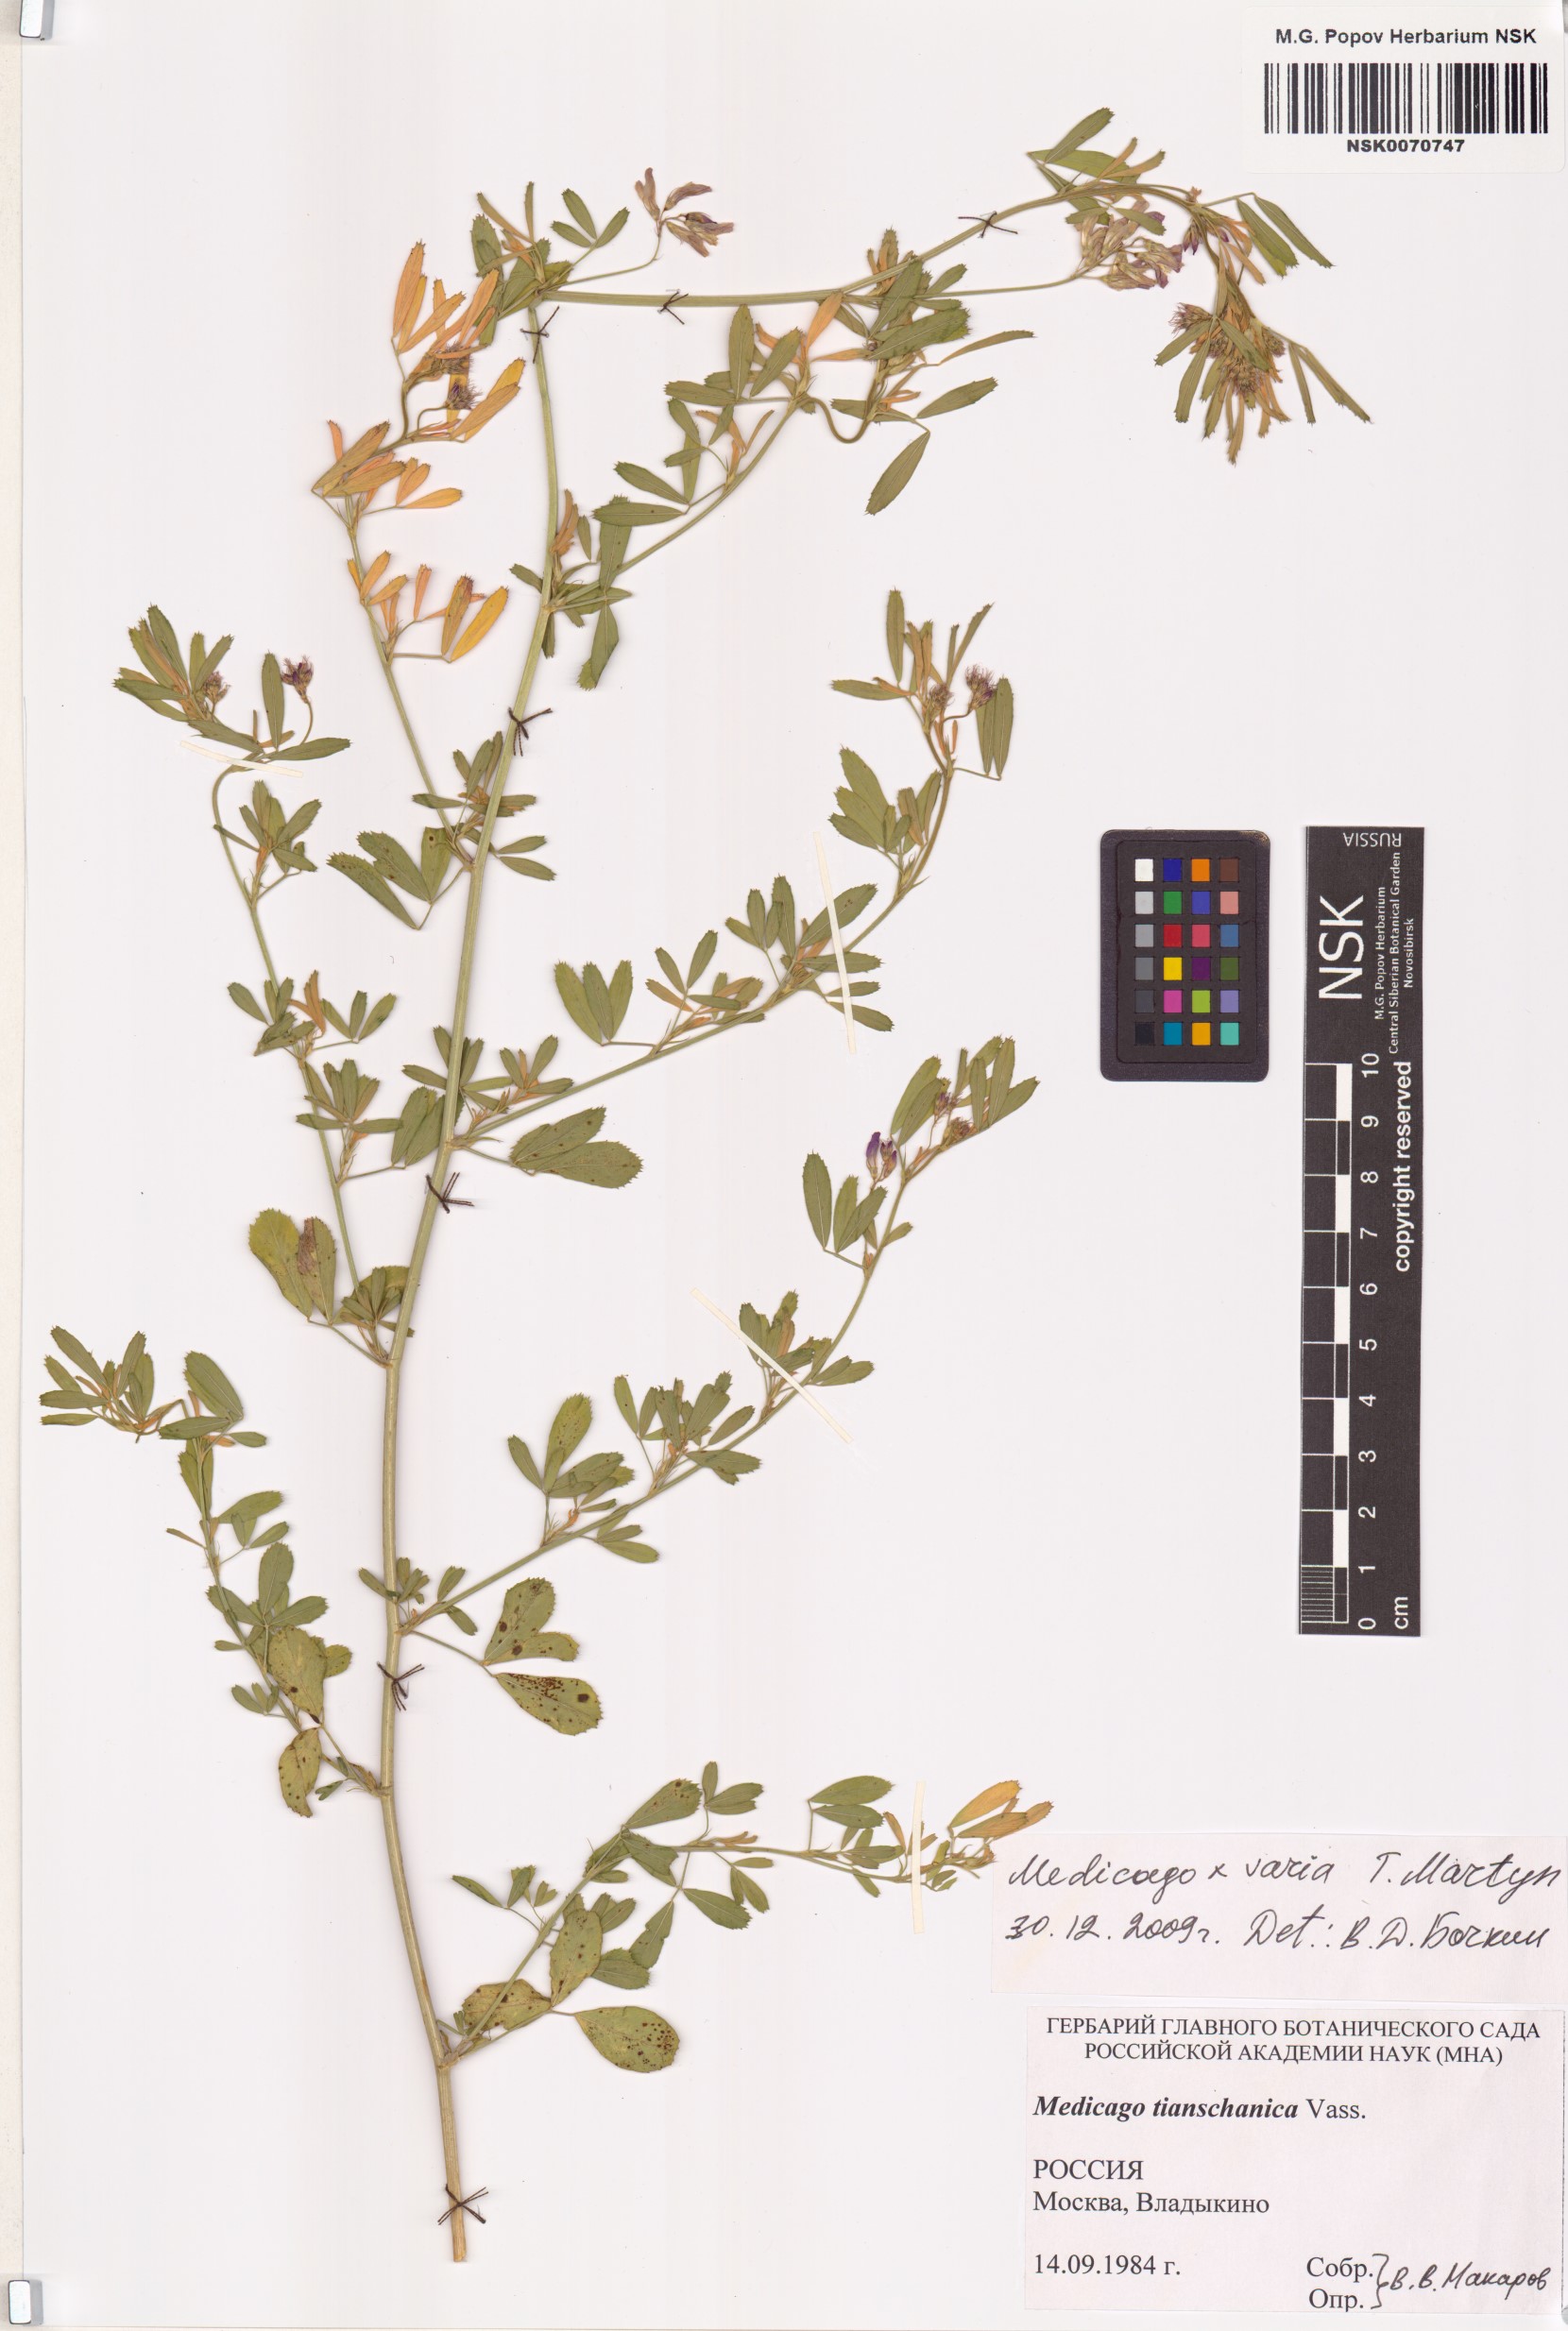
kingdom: Plantae
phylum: Tracheophyta
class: Magnoliopsida
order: Fabales
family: Fabaceae
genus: Medicago
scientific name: Medicago varia
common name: Sand lucerne
